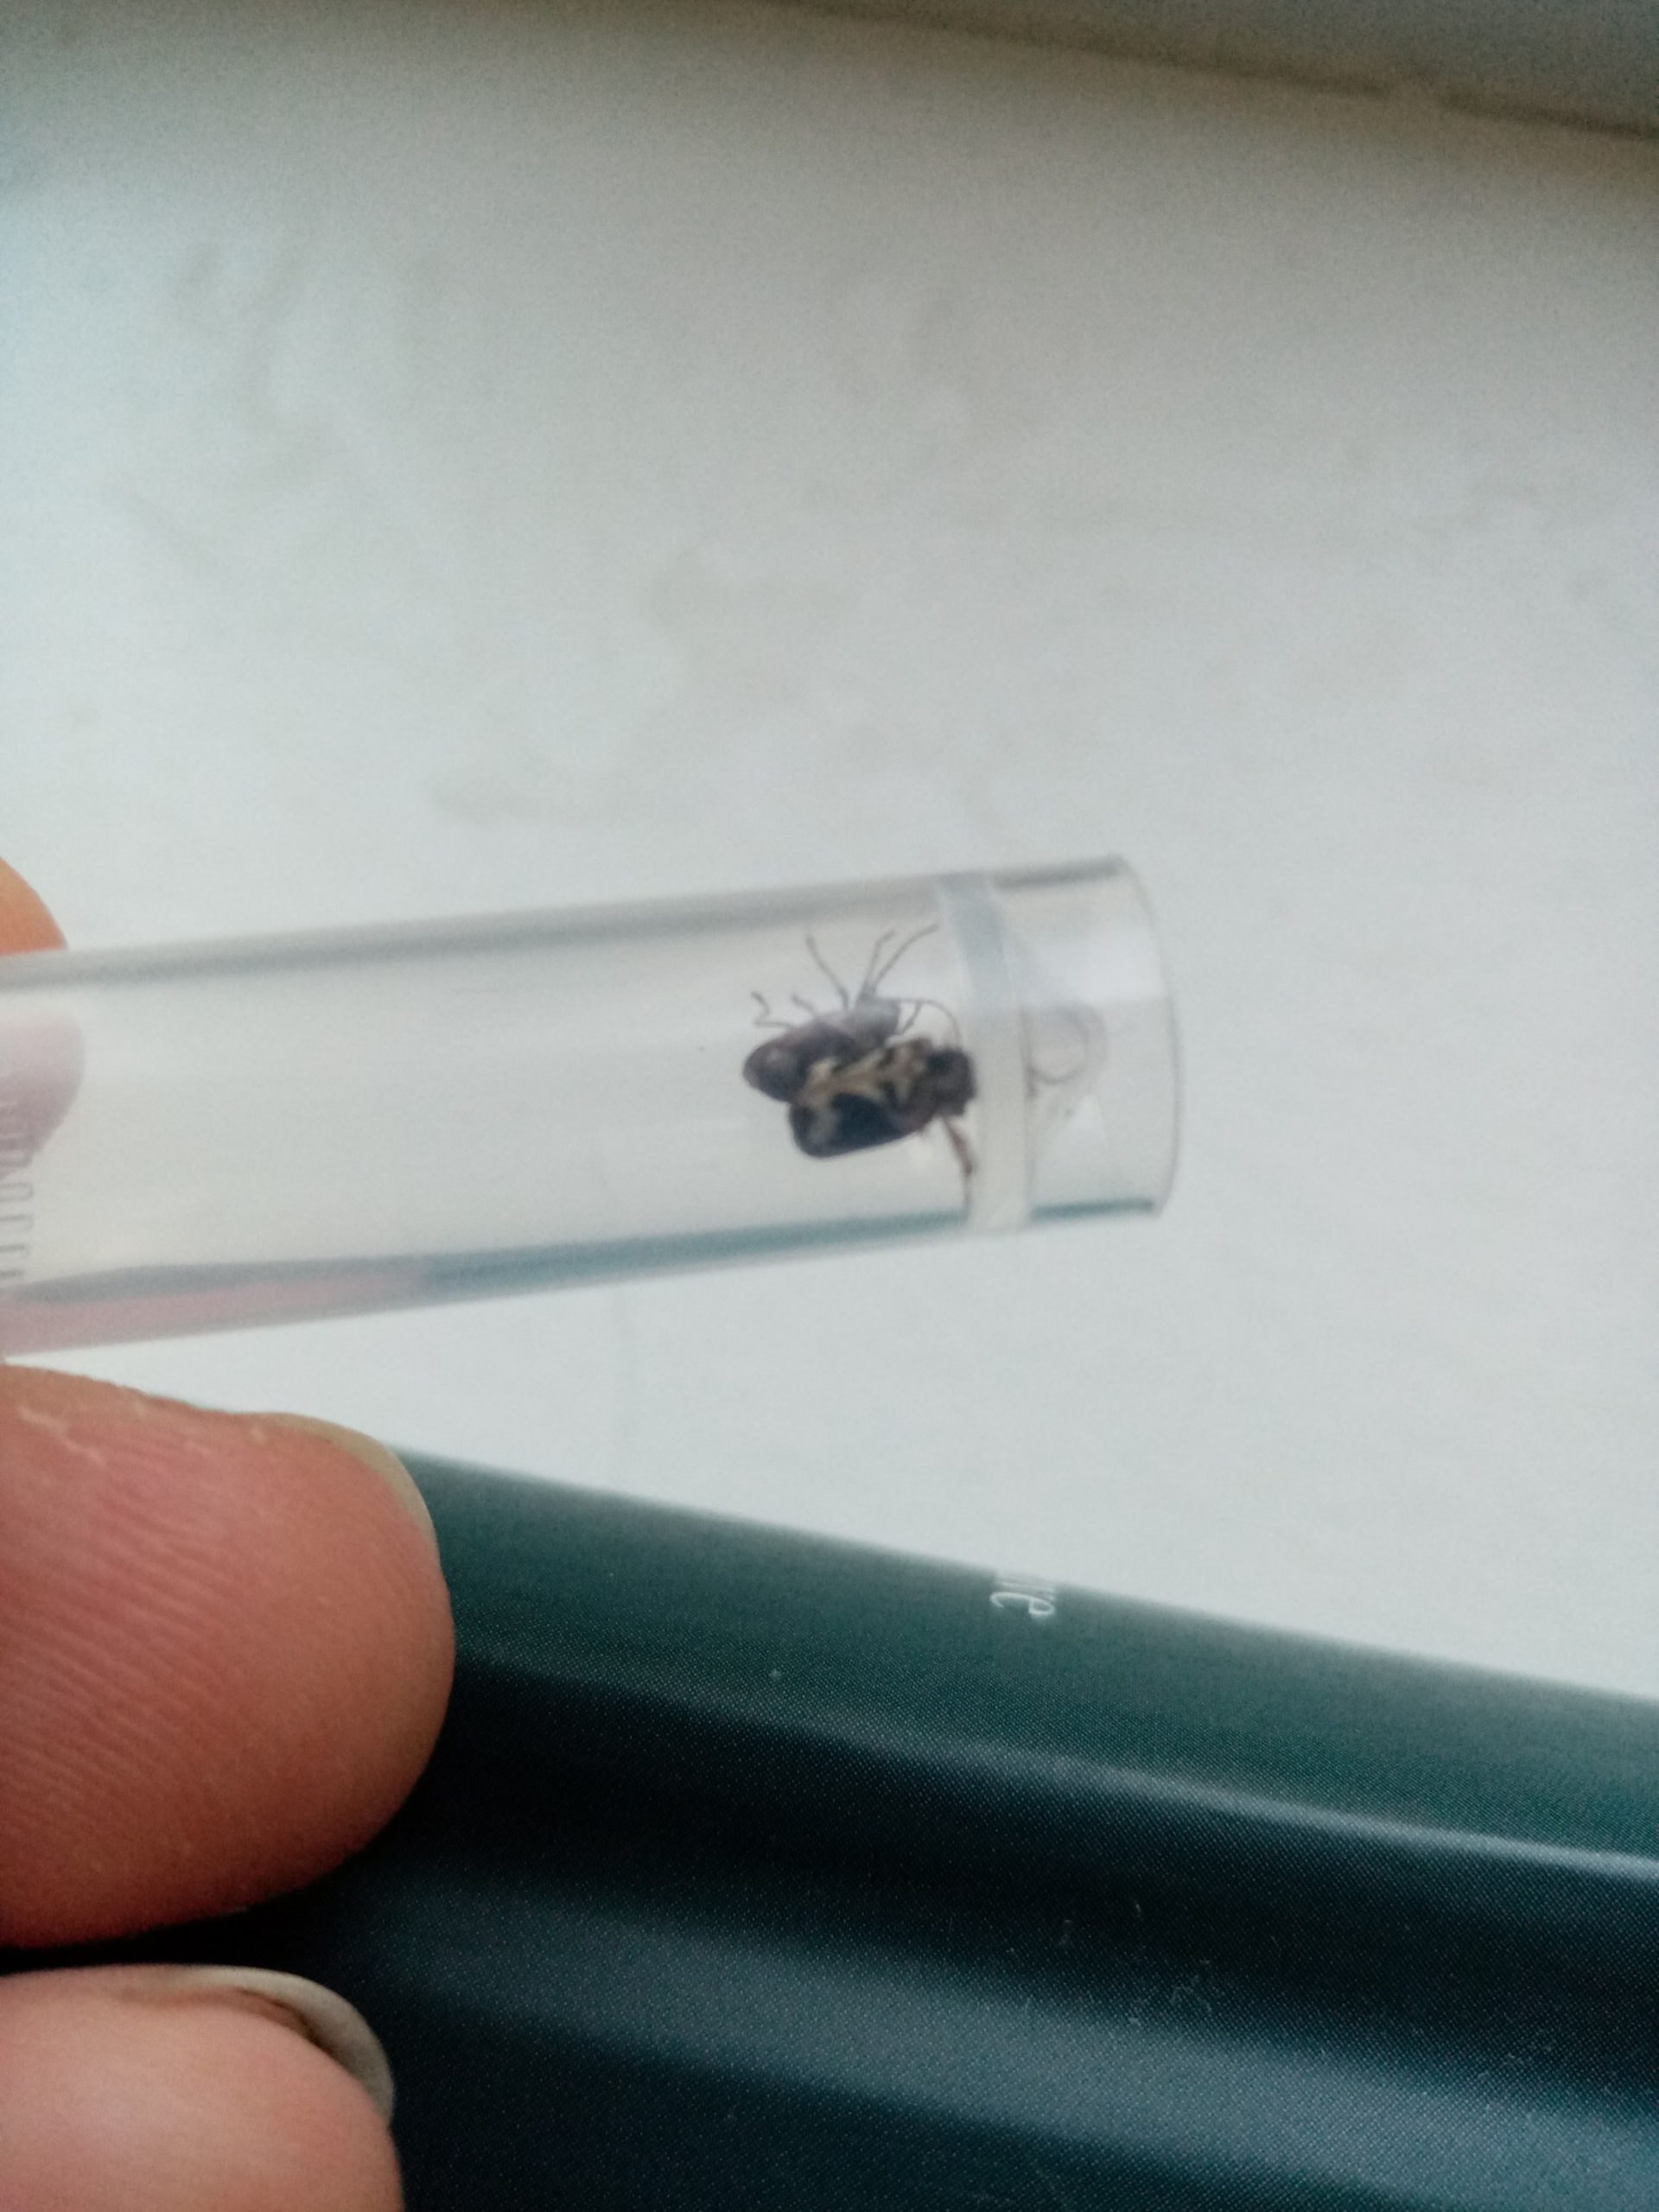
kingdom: Animalia
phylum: Arthropoda
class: Insecta
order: Coleoptera
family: Anobiidae
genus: Ptinomorphus
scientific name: Ptinomorphus imperialis
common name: Hvidbroget borebille
